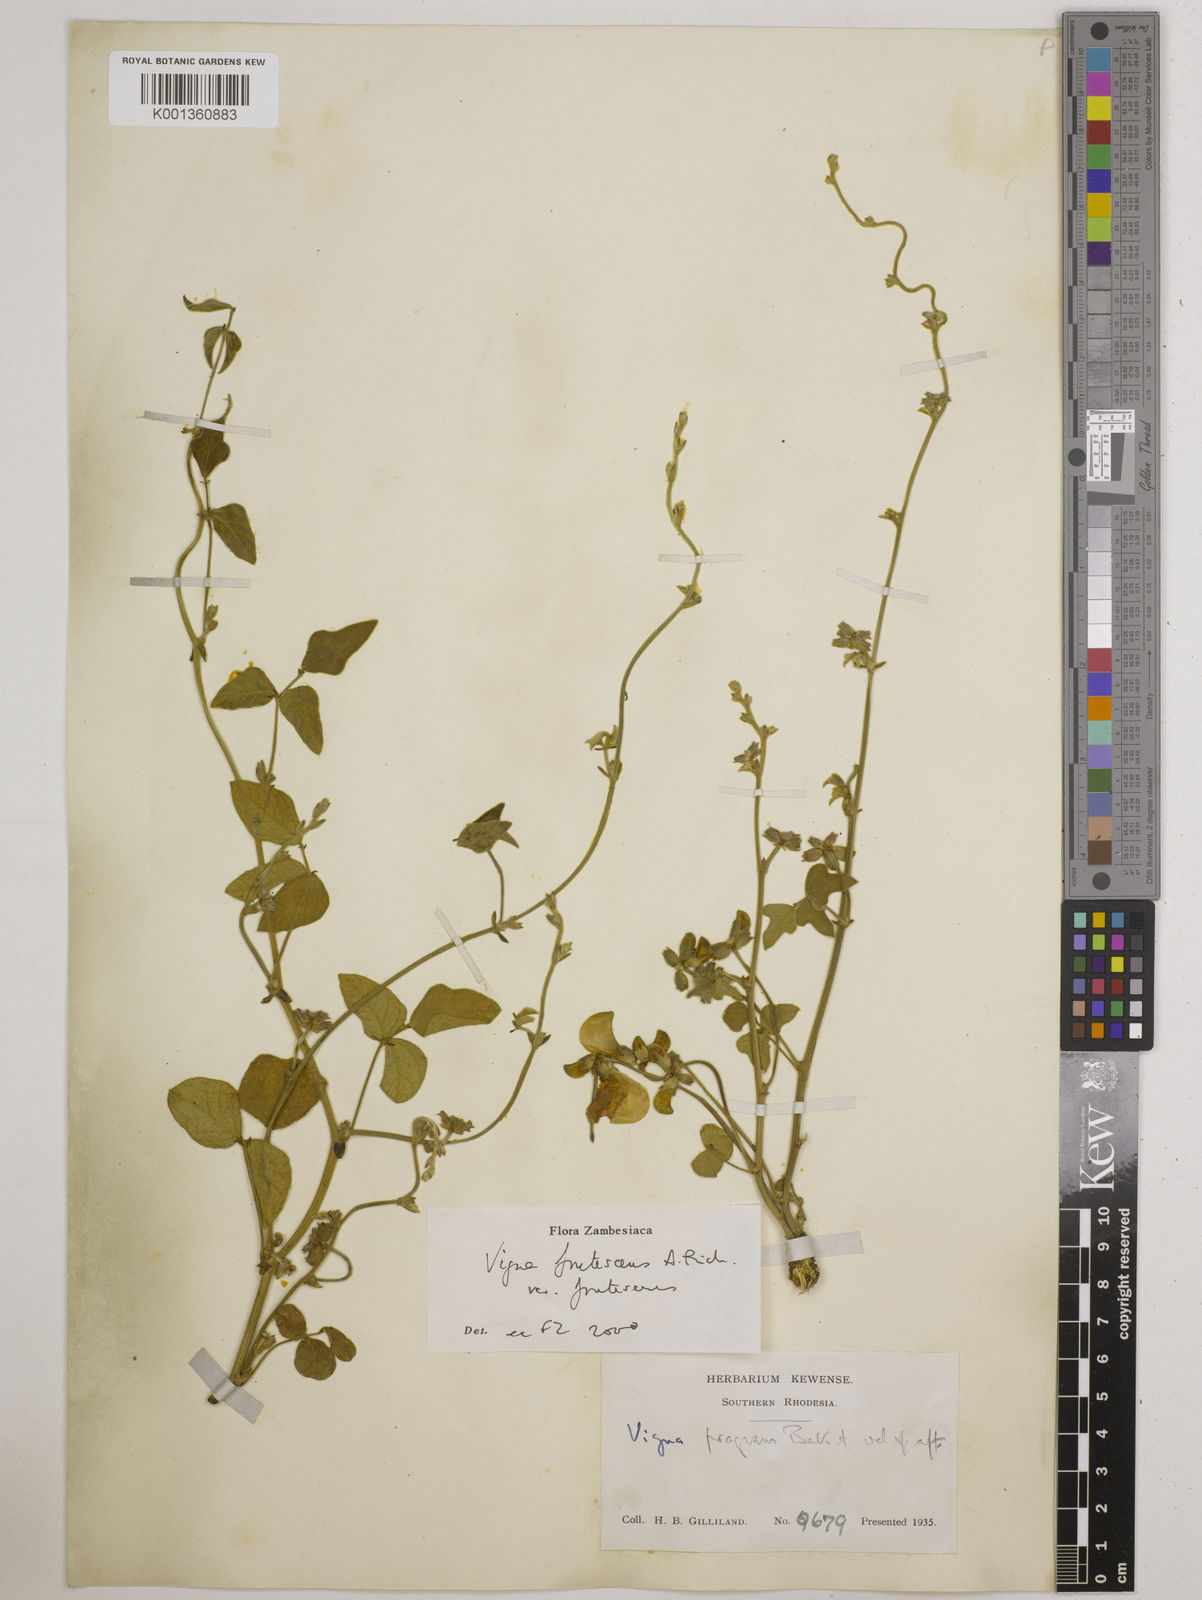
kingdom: Plantae
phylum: Tracheophyta
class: Magnoliopsida
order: Fabales
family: Fabaceae
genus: Vigna
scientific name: Vigna
